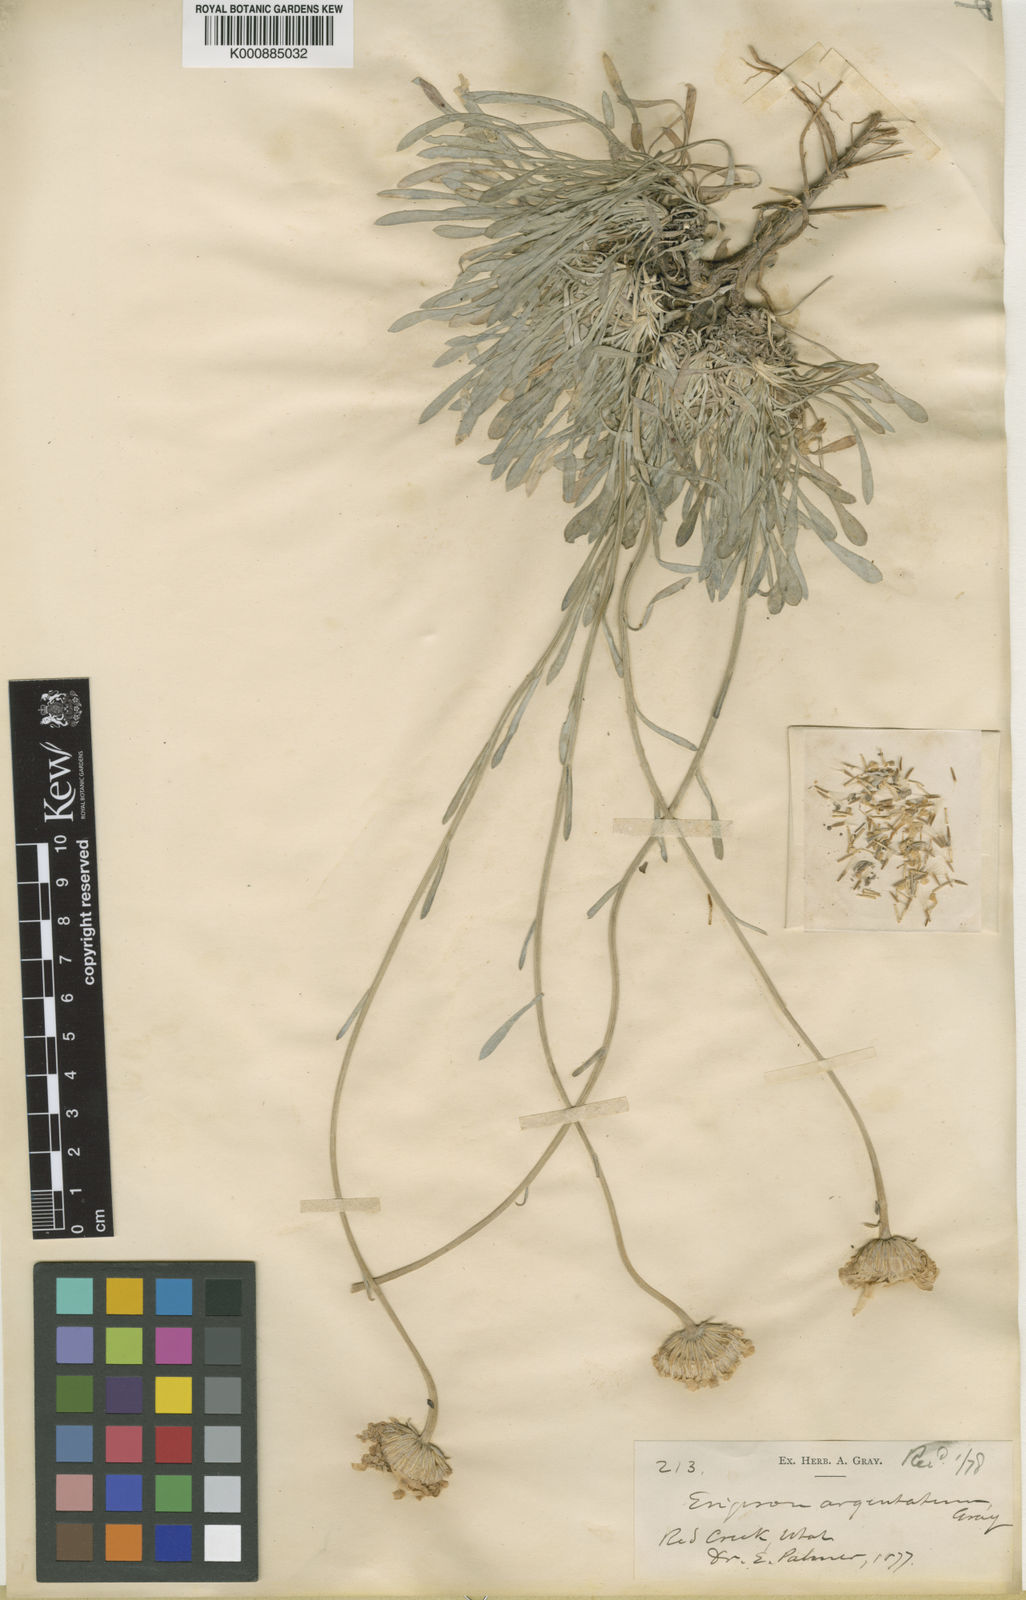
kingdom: Plantae
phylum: Tracheophyta
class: Magnoliopsida
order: Asterales
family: Asteraceae
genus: Erigeron
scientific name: Erigeron
